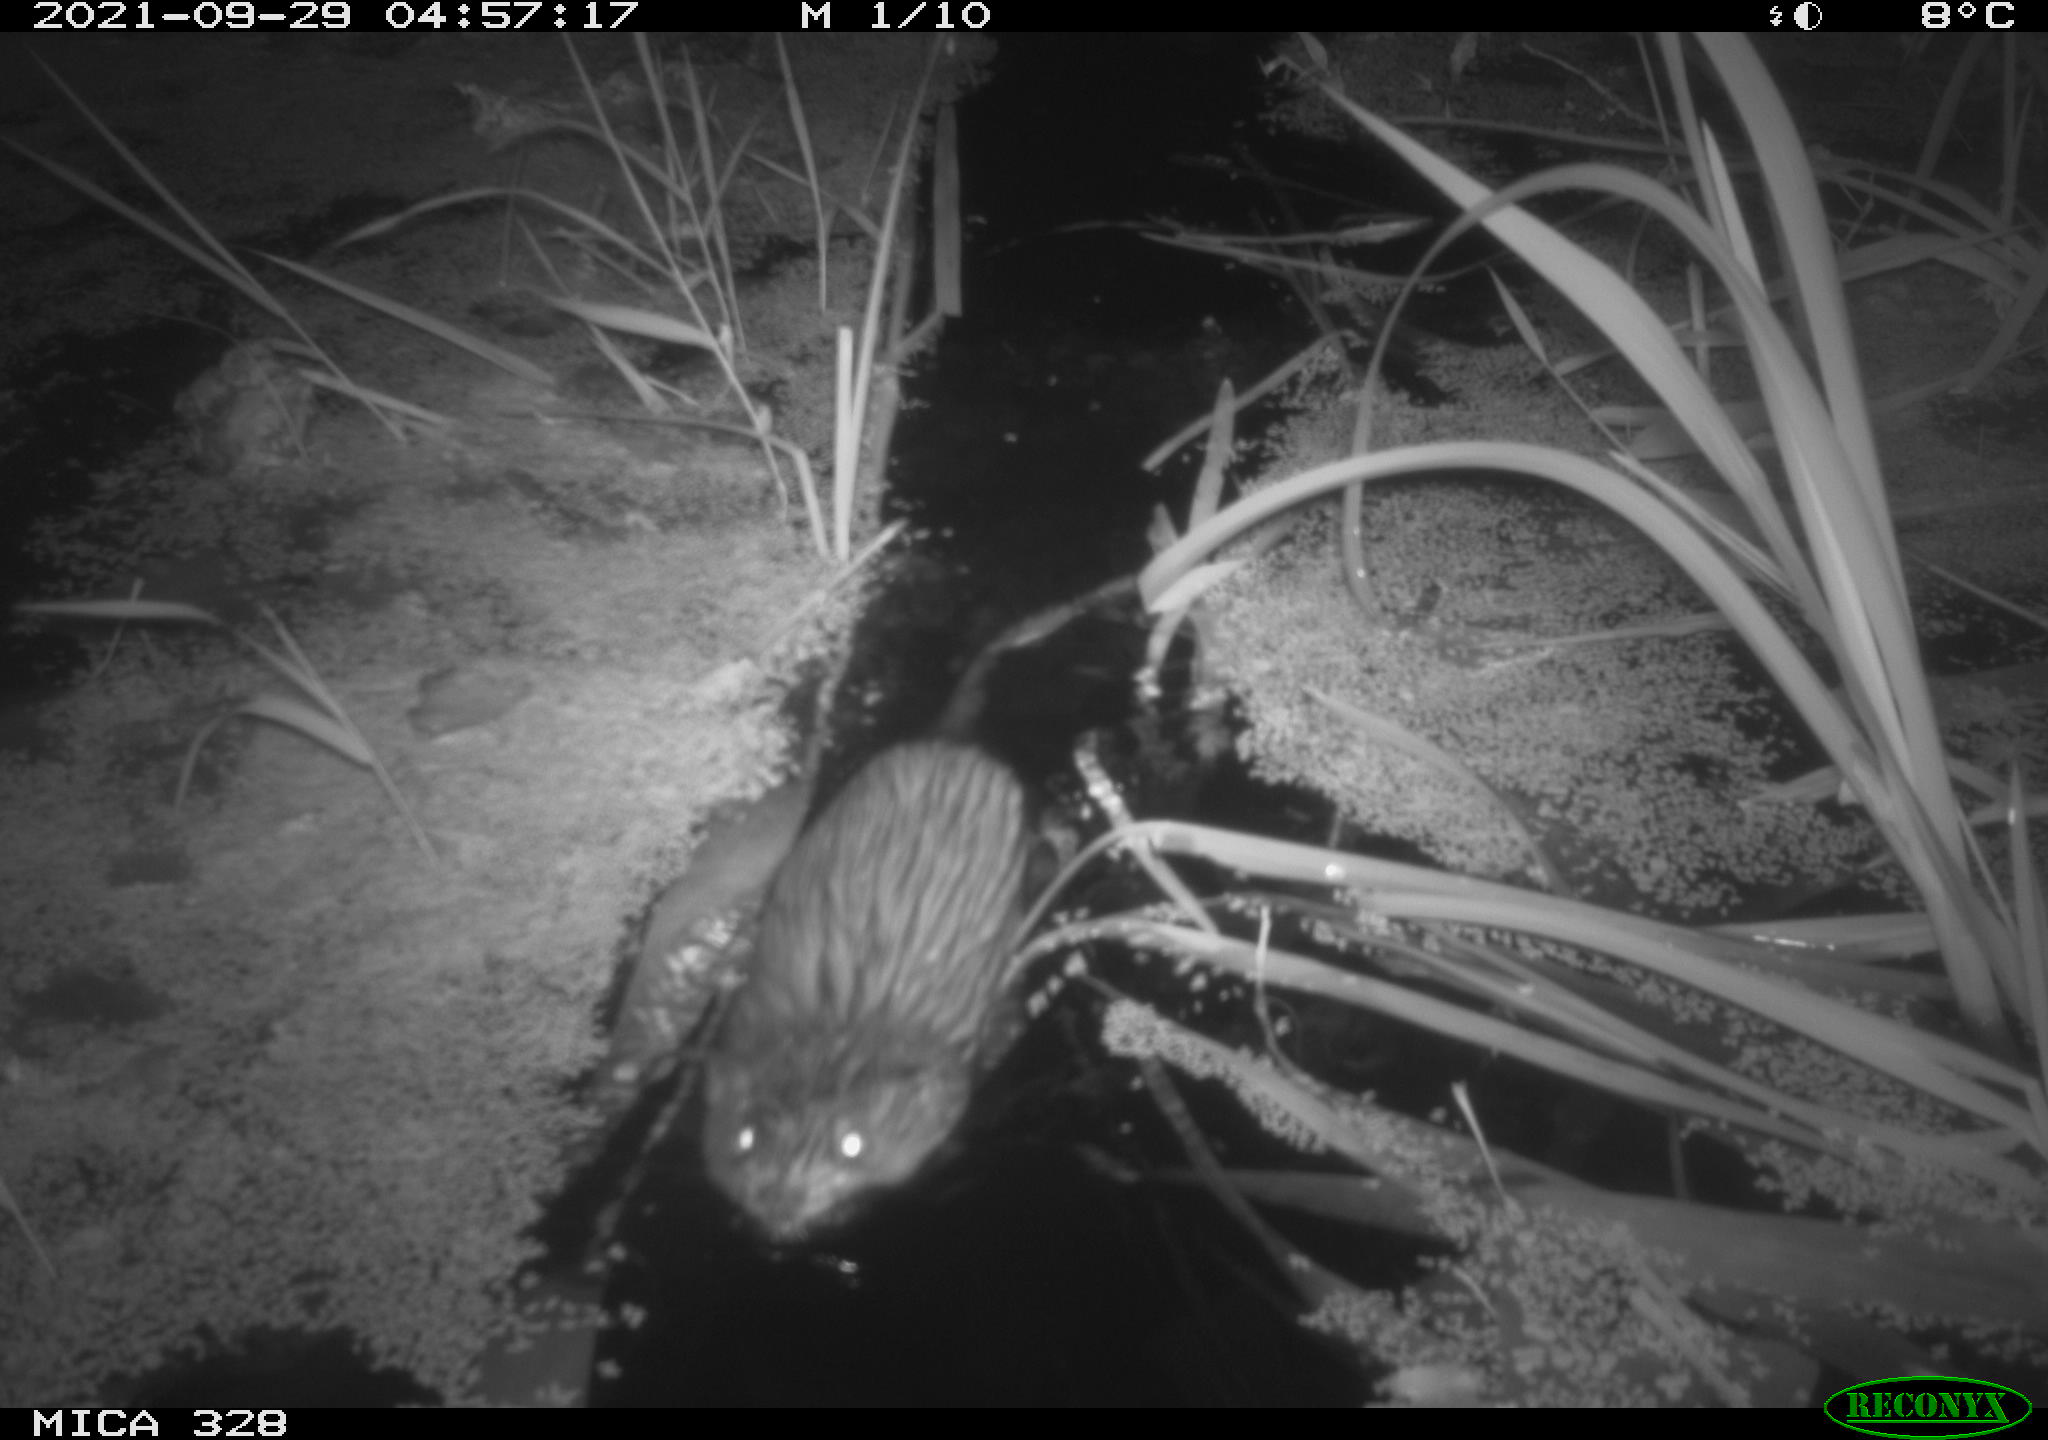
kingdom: Animalia
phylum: Chordata
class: Mammalia
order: Rodentia
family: Cricetidae
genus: Ondatra
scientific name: Ondatra zibethicus
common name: Muskrat
